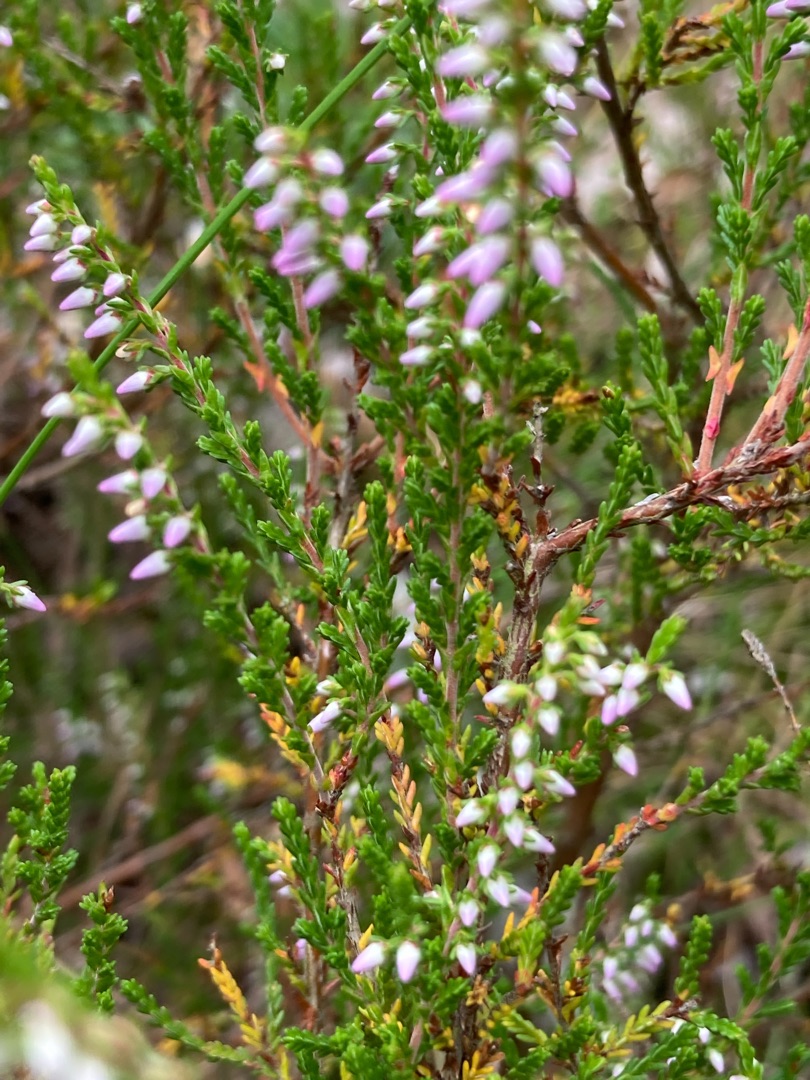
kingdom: Plantae
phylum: Tracheophyta
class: Magnoliopsida
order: Ericales
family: Ericaceae
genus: Calluna
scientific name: Calluna vulgaris
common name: Hedelyng
